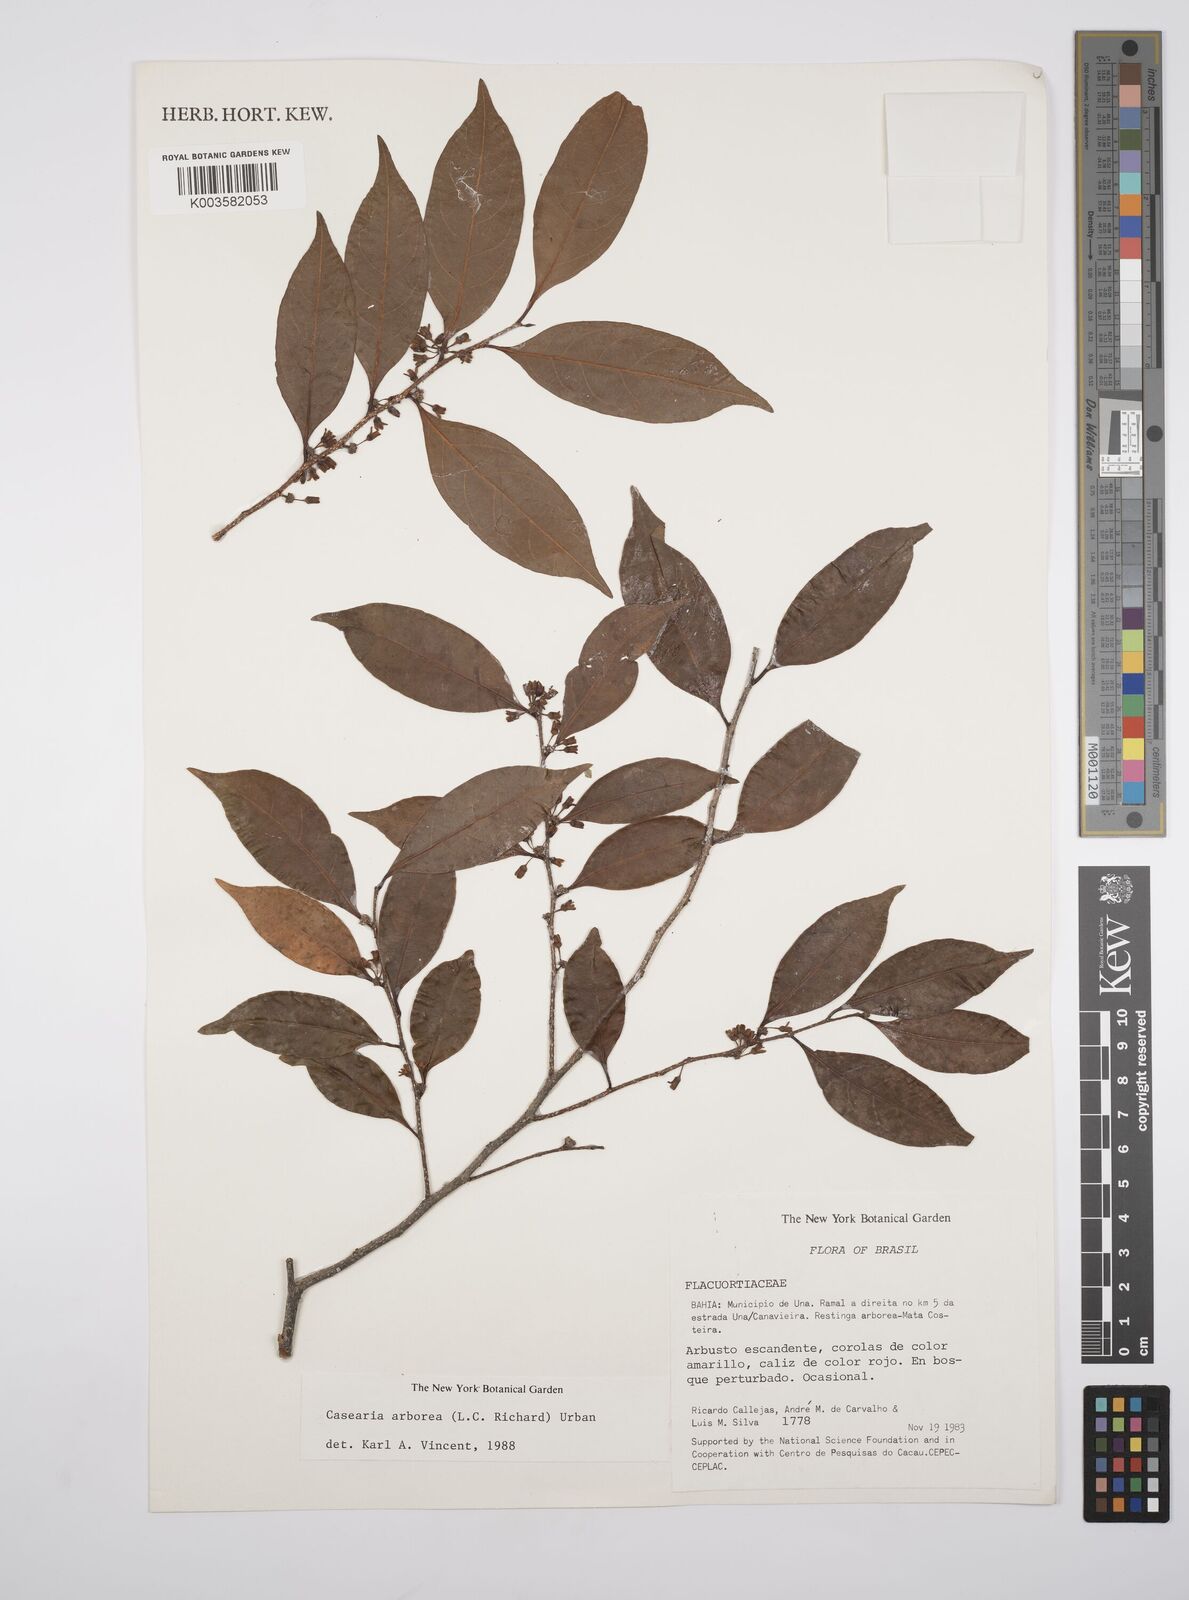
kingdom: Plantae
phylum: Tracheophyta
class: Magnoliopsida
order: Malpighiales
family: Salicaceae
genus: Casearia
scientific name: Casearia arborea
